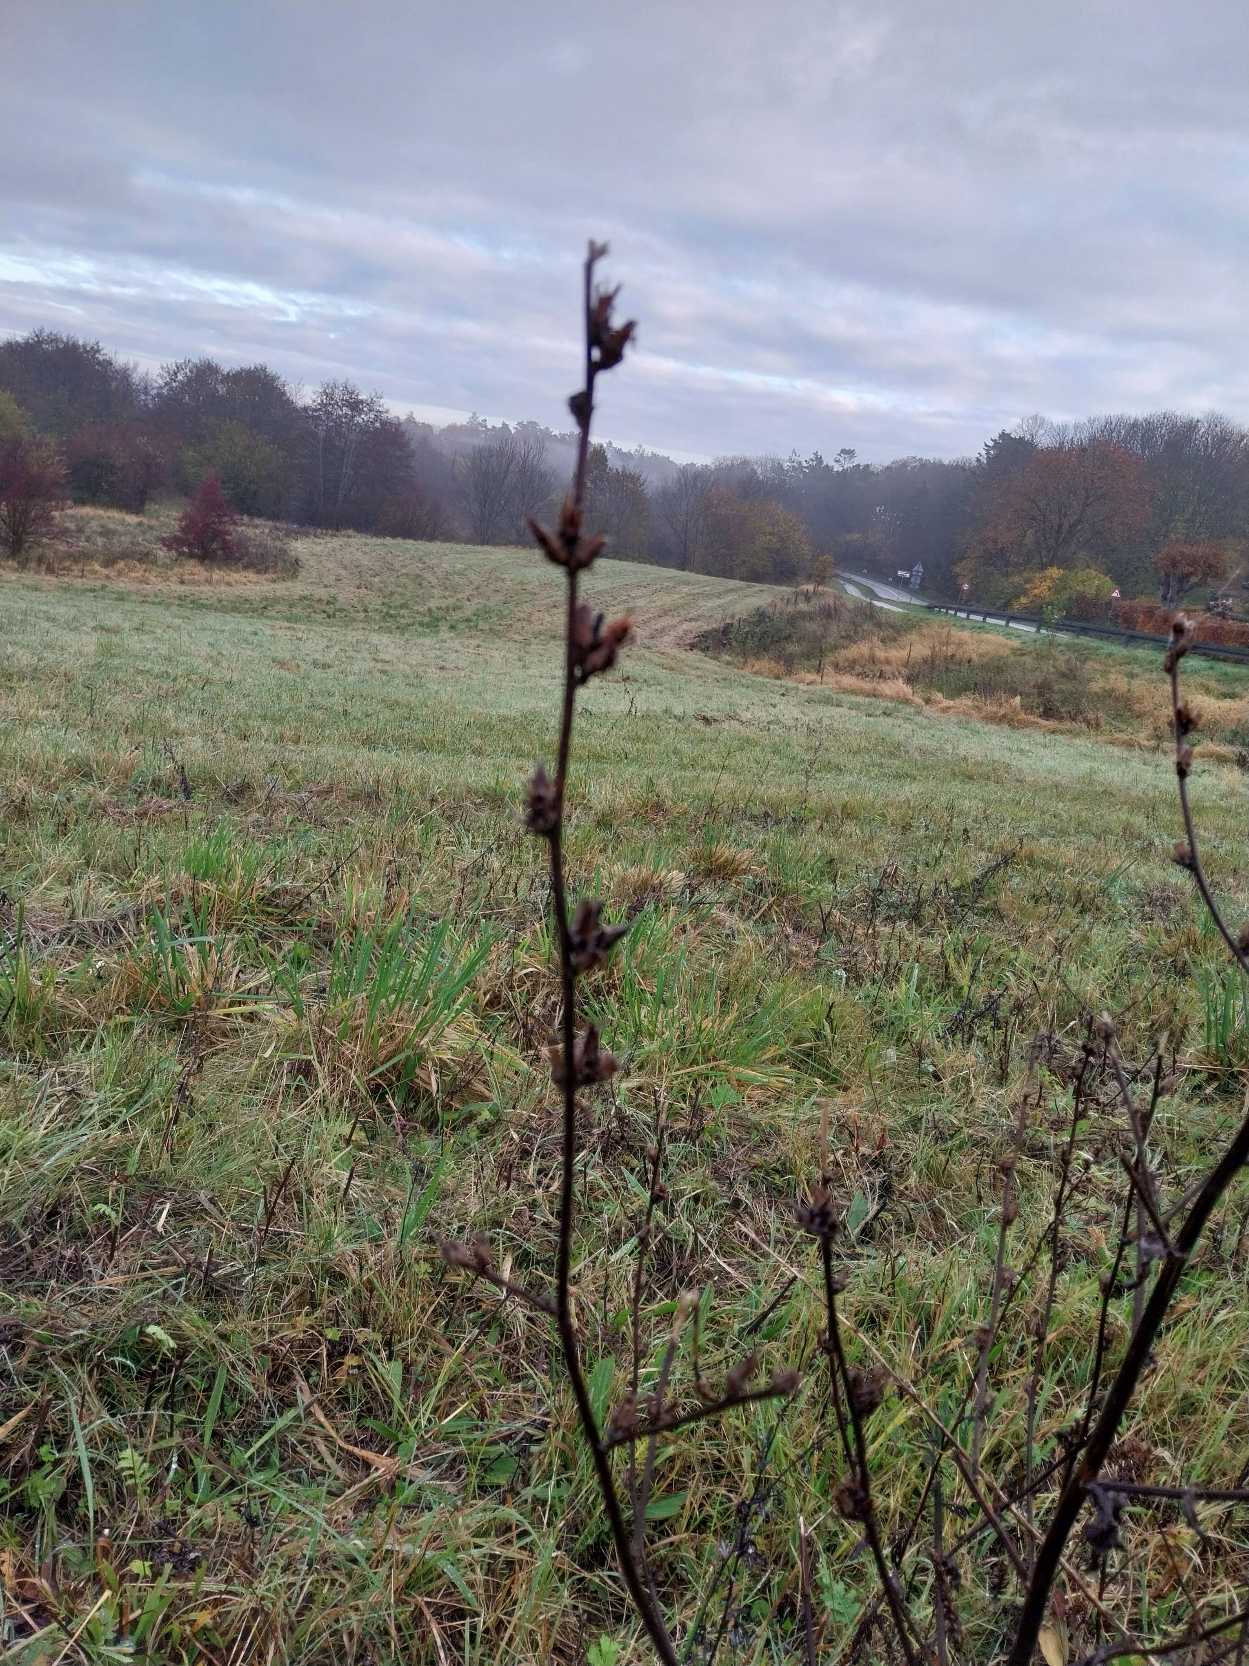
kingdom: Plantae
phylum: Tracheophyta
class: Magnoliopsida
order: Asterales
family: Asteraceae
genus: Cichorium
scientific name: Cichorium intybus
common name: Cikorie
